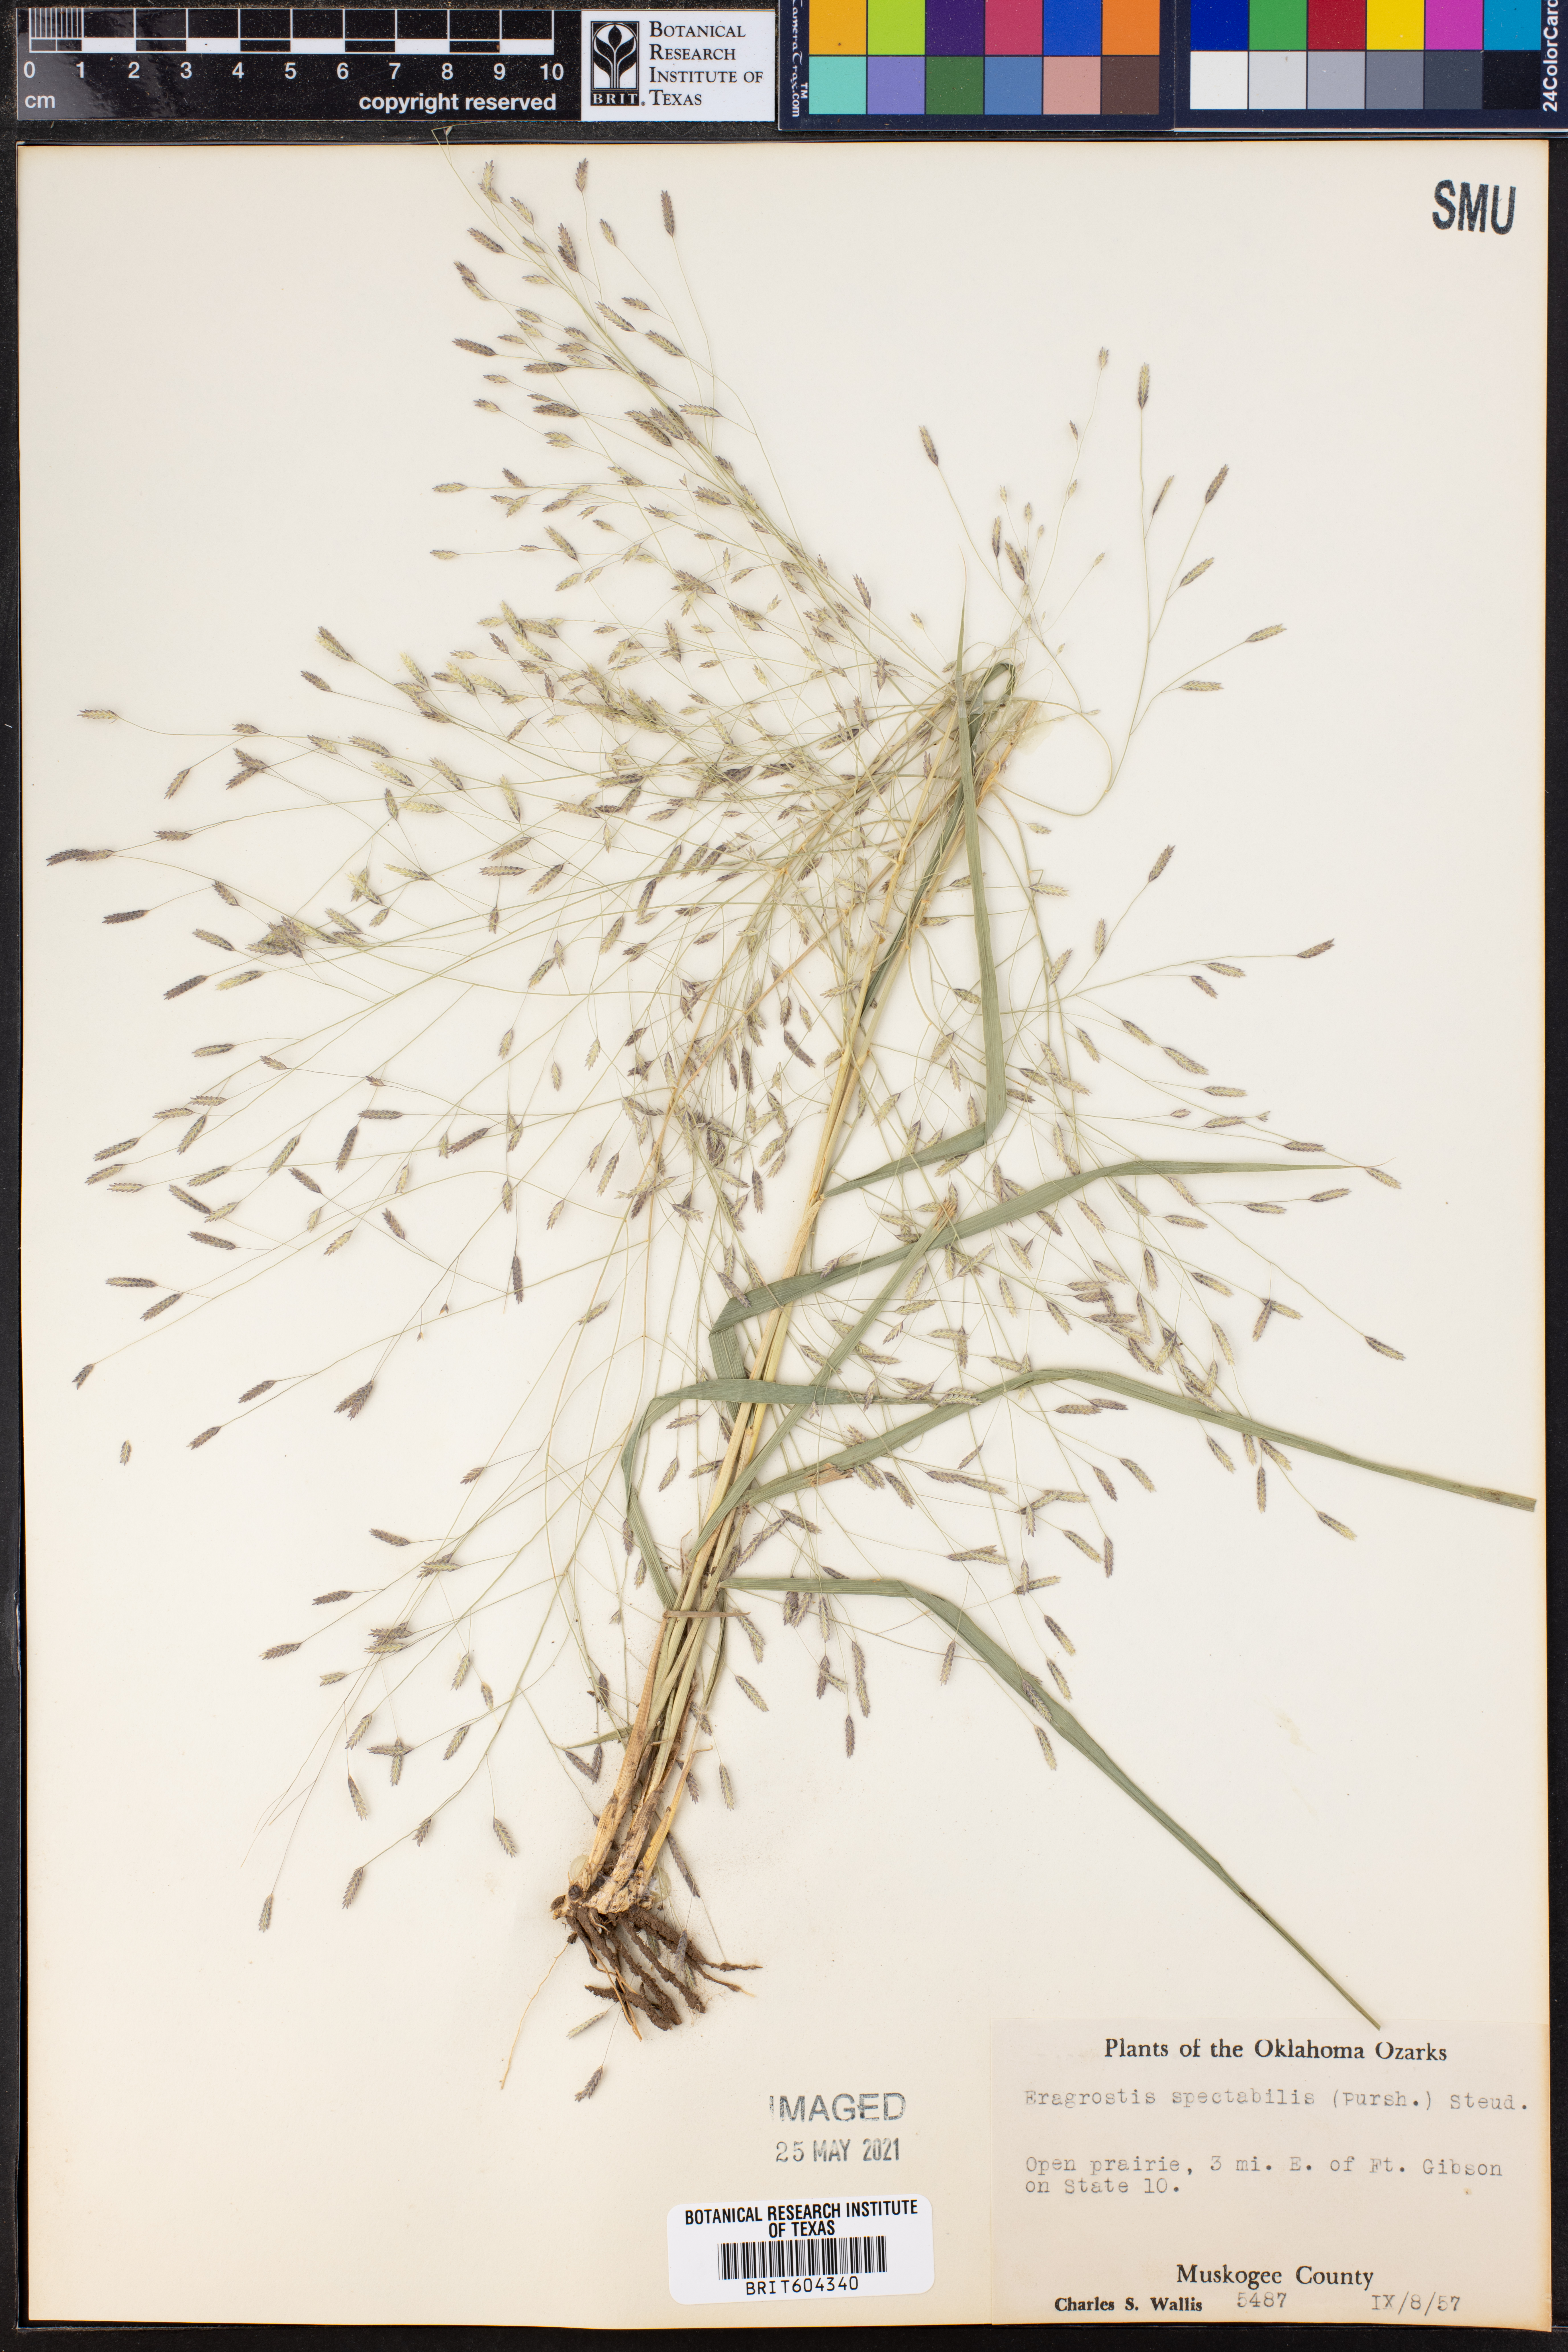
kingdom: Plantae
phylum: Tracheophyta
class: Liliopsida
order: Poales
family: Poaceae
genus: Eragrostis
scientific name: Eragrostis spectabilis
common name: Petticoat-climber
